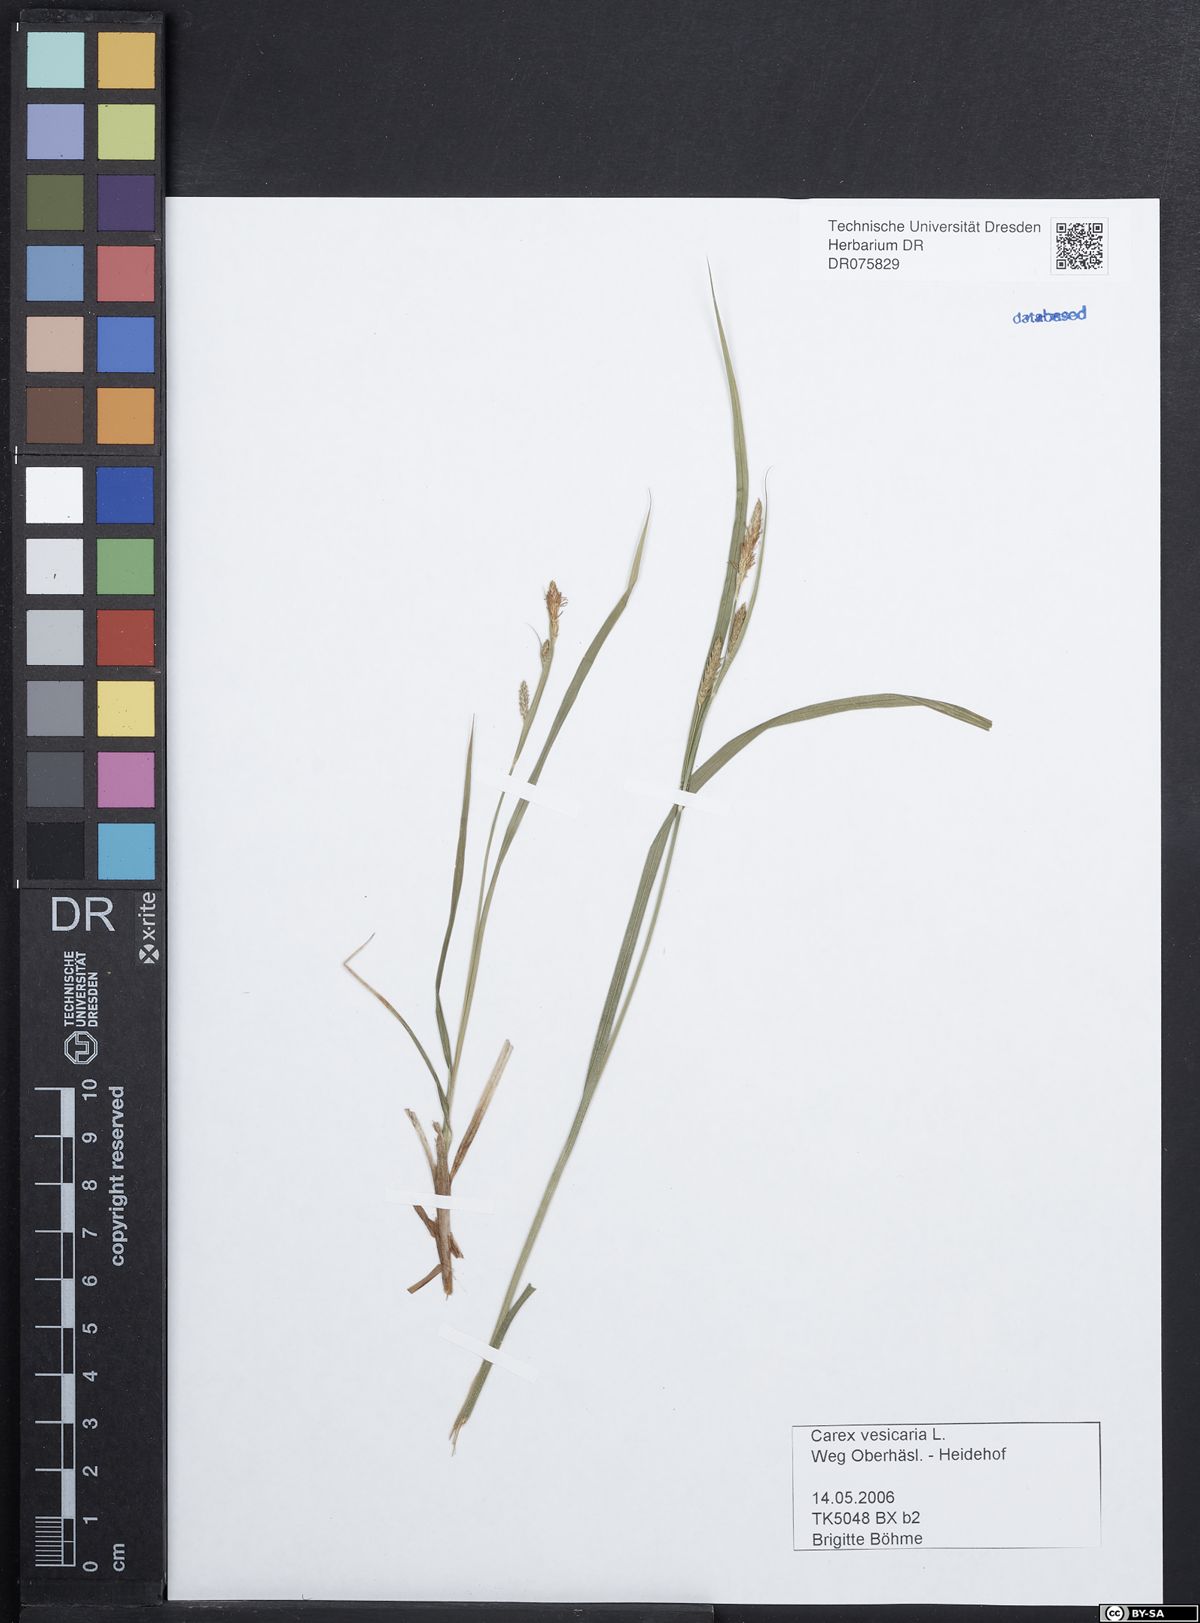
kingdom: Plantae
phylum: Tracheophyta
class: Liliopsida
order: Poales
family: Cyperaceae
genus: Carex
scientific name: Carex vesicaria
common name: Bladder-sedge
